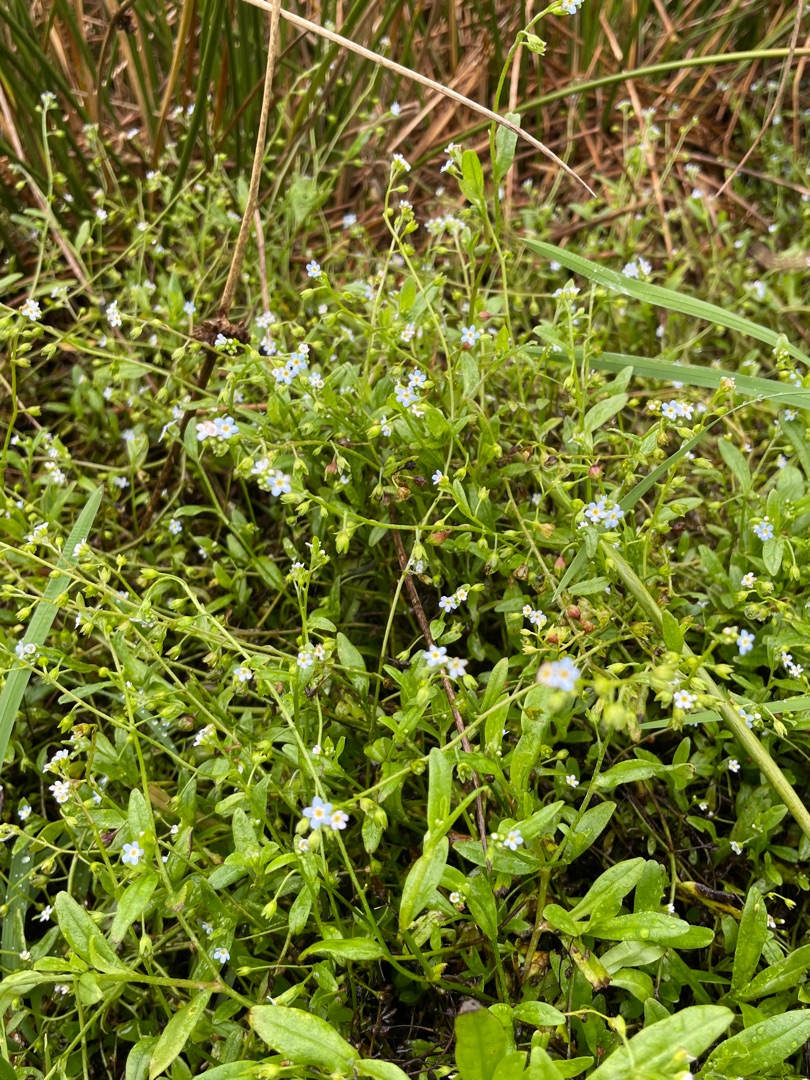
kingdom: Plantae
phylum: Tracheophyta
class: Magnoliopsida
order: Boraginales
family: Boraginaceae
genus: Myosotis
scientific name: Myosotis laxa
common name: Sump-forglemmigej
